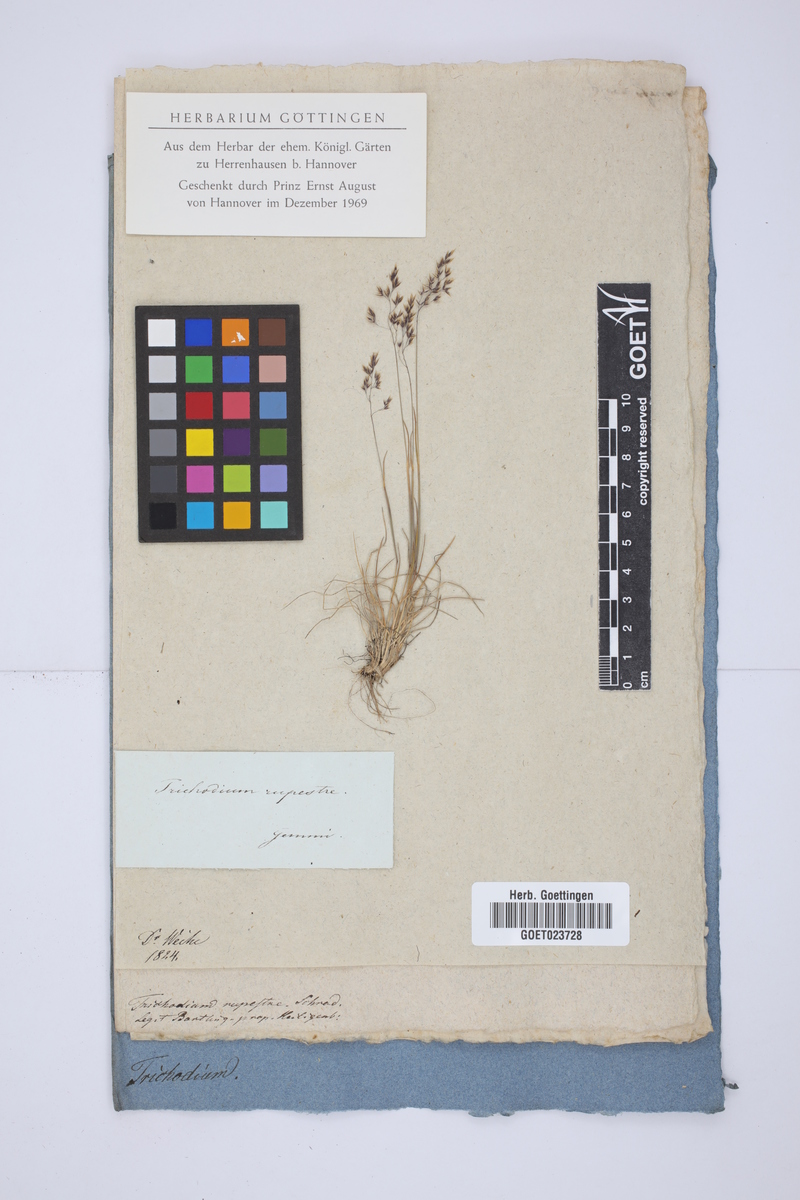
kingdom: Plantae
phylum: Tracheophyta
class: Liliopsida
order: Poales
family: Poaceae
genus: Alpagrostis
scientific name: Alpagrostis alpina
